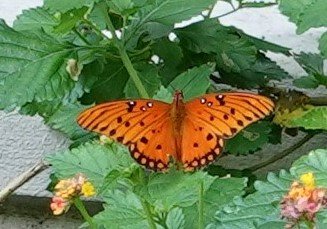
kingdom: Animalia
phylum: Arthropoda
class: Insecta
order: Lepidoptera
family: Nymphalidae
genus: Dione
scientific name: Dione vanillae
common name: Gulf Fritillary
